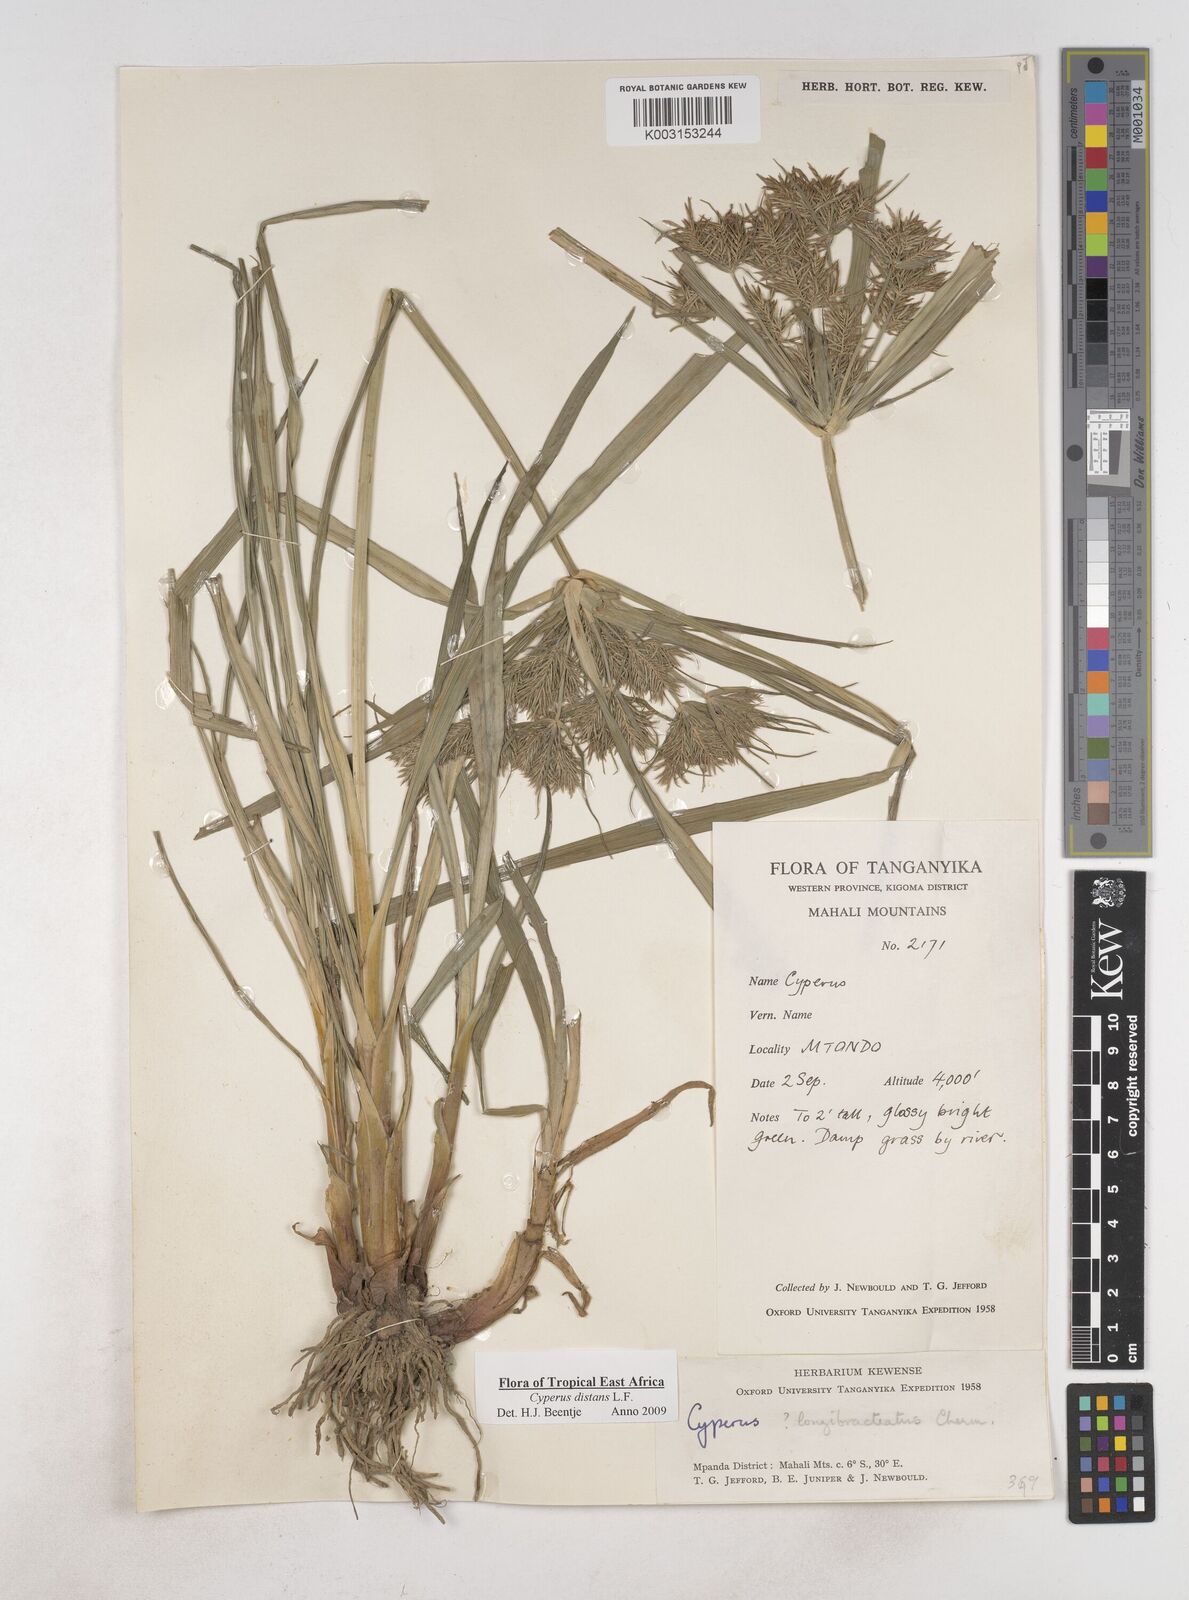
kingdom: Plantae
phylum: Tracheophyta
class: Liliopsida
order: Poales
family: Cyperaceae
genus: Cyperus
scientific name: Cyperus distans
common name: Slender cyperus
